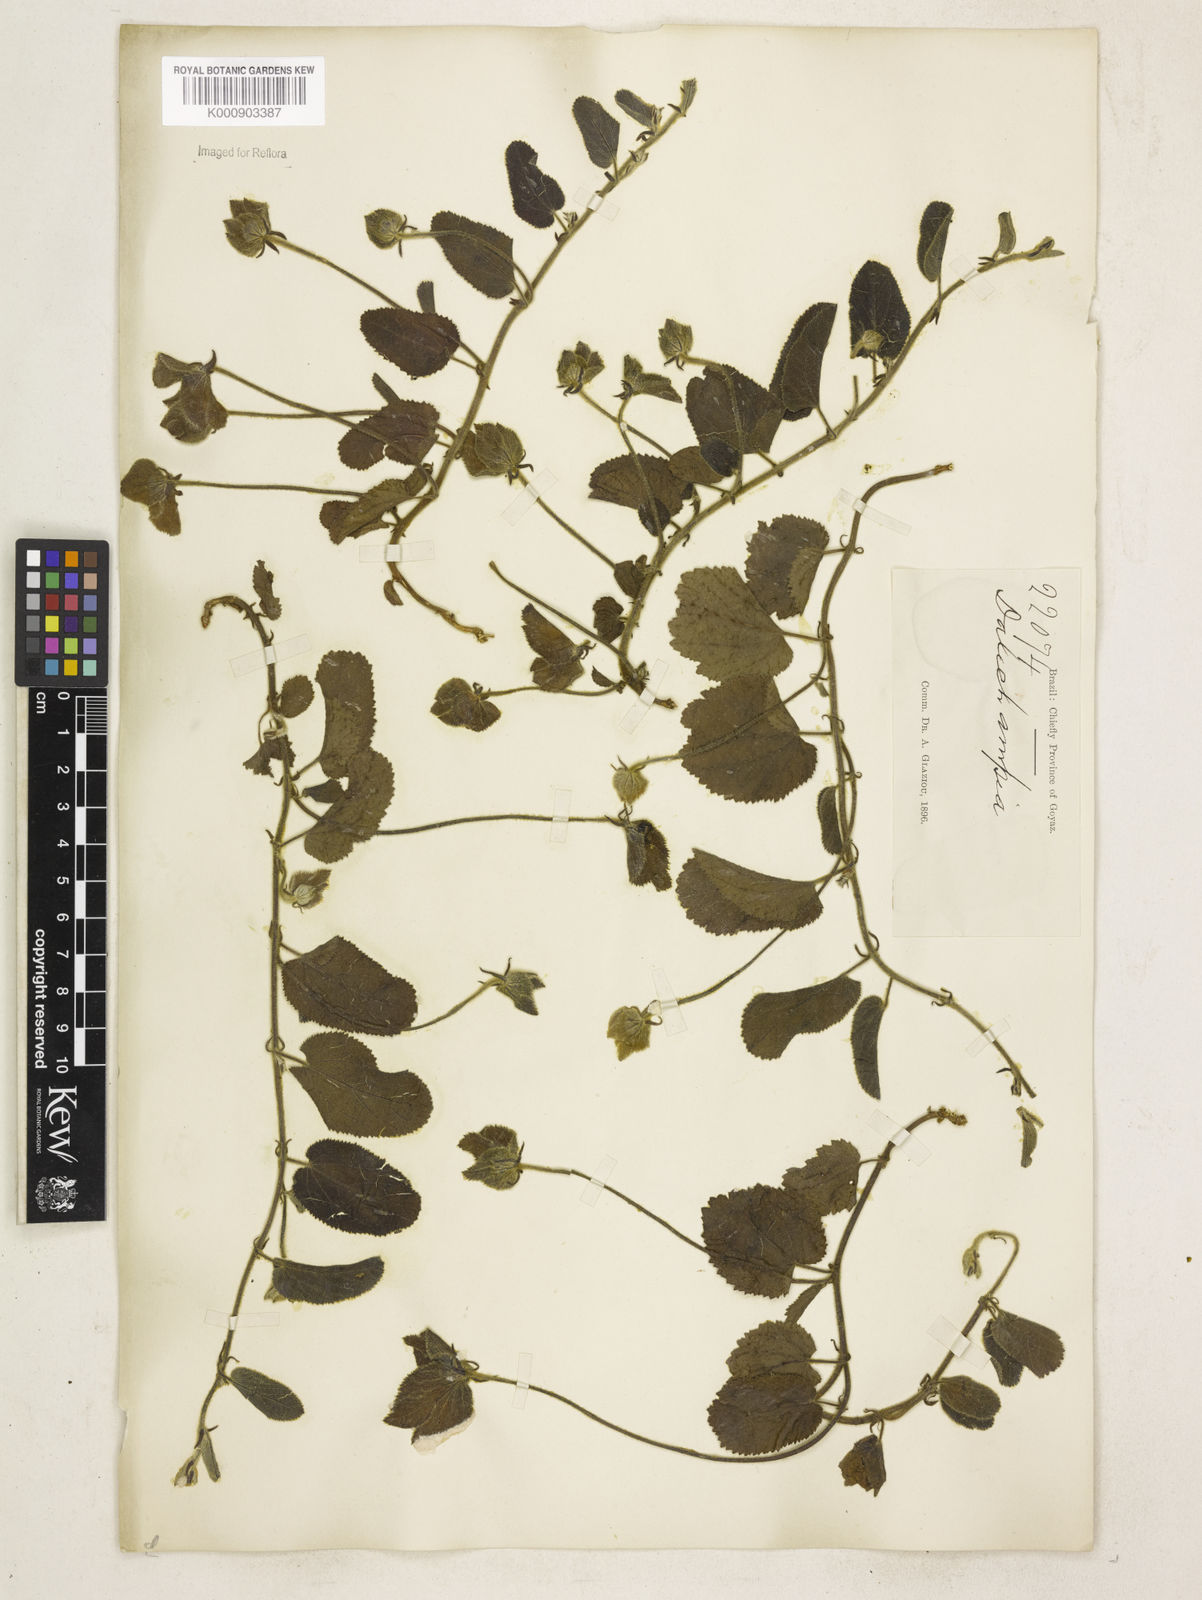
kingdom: Plantae
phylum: Tracheophyta
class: Magnoliopsida
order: Malpighiales
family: Euphorbiaceae
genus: Dalechampia
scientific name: Dalechampia
